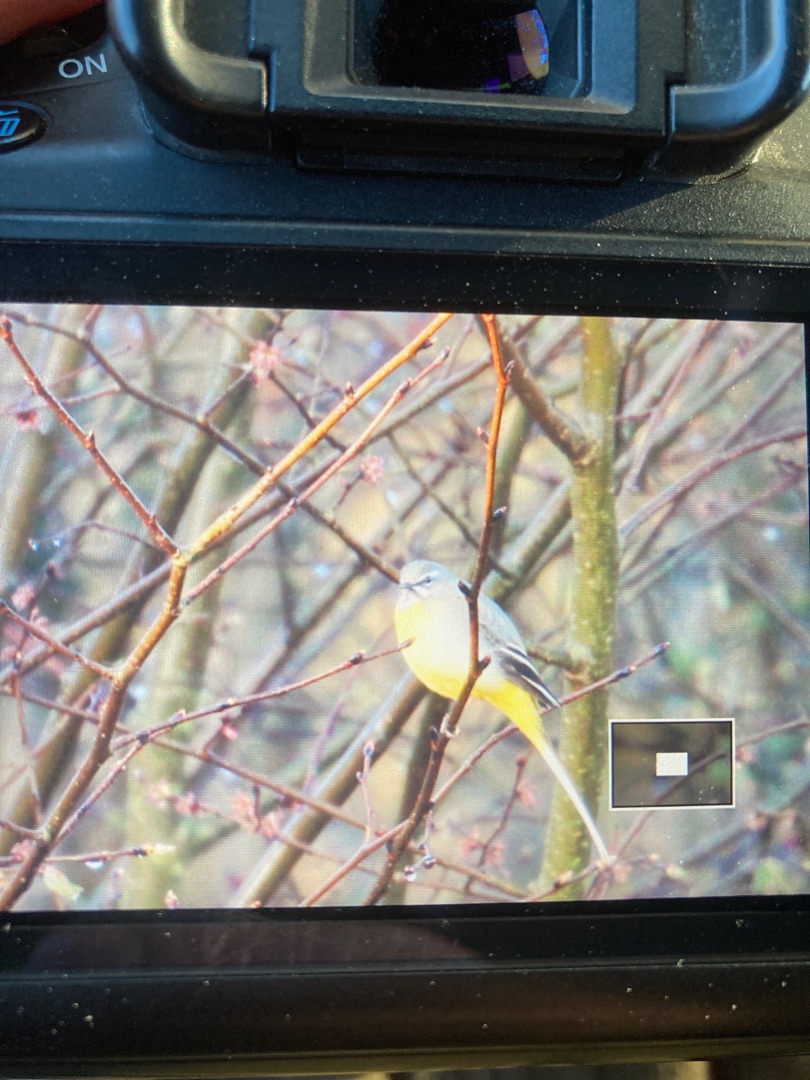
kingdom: Animalia
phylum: Chordata
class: Aves
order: Passeriformes
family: Motacillidae
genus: Motacilla
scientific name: Motacilla cinerea
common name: Bjergvipstjert
